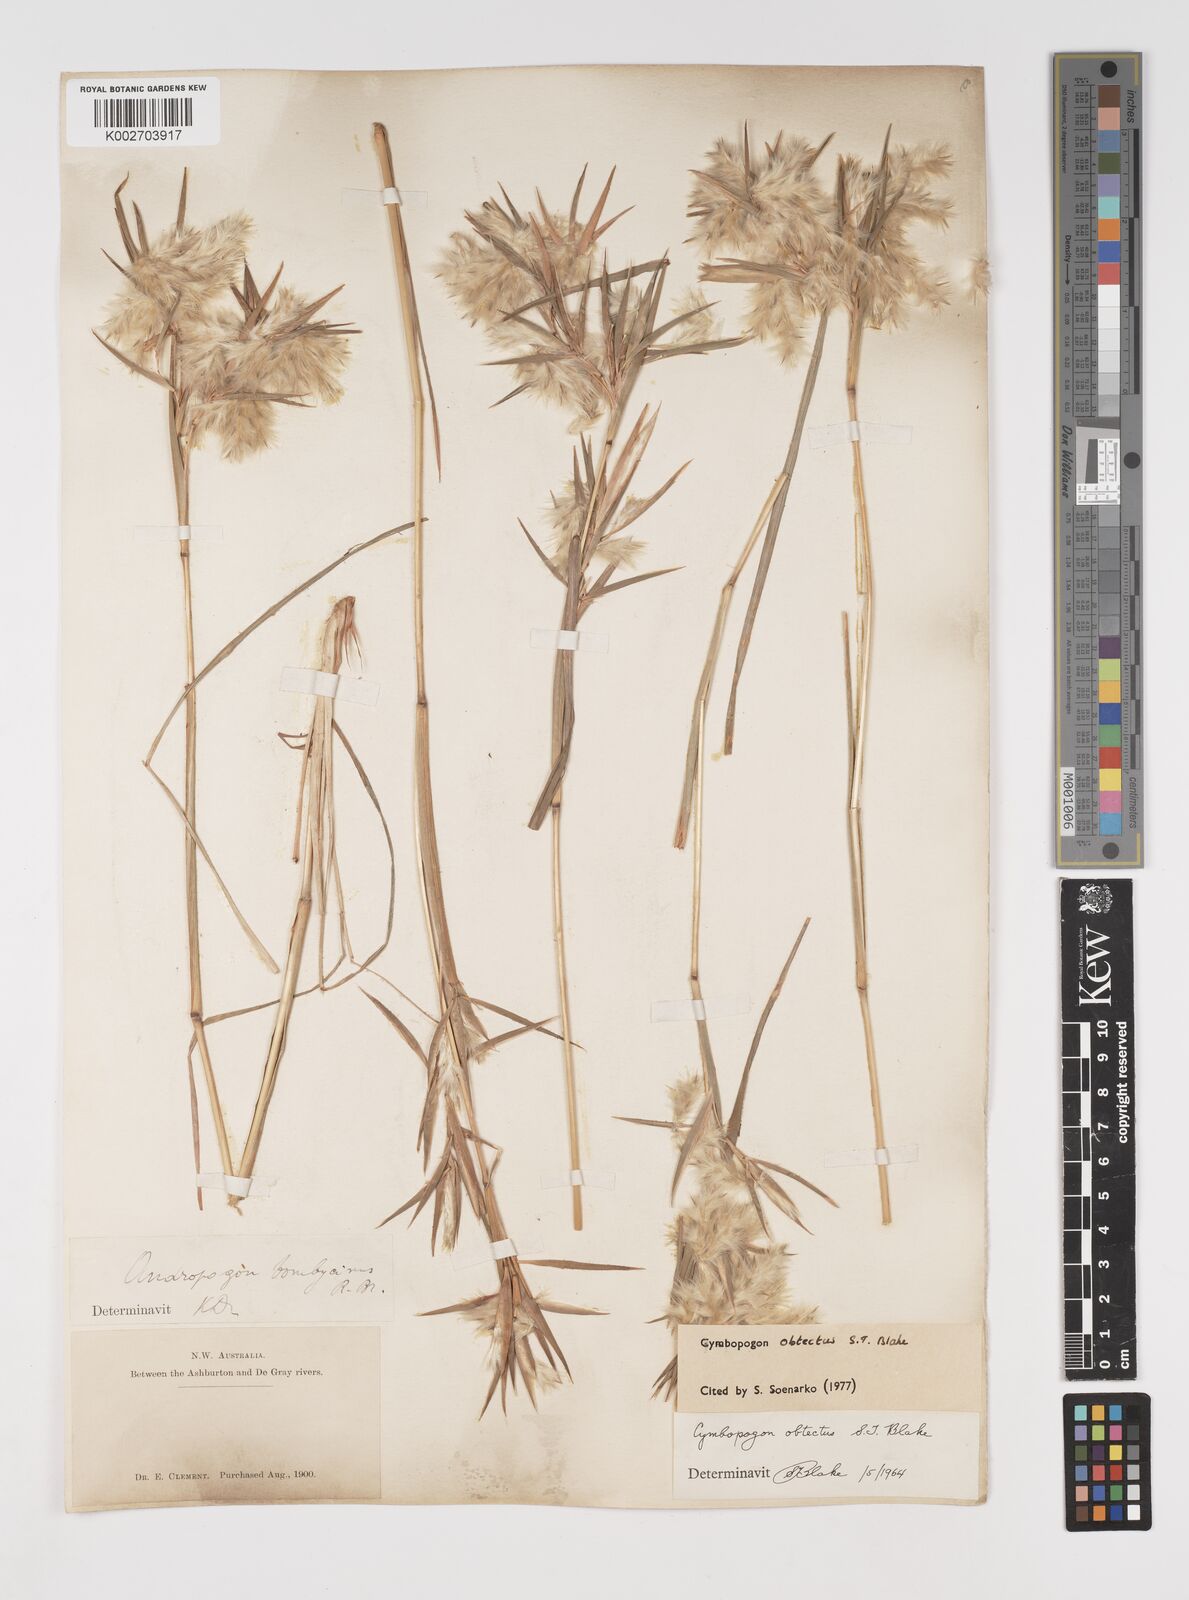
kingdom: Plantae
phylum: Tracheophyta
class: Liliopsida
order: Poales
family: Poaceae
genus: Cymbopogon
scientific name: Cymbopogon obtectus
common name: Silky heads
